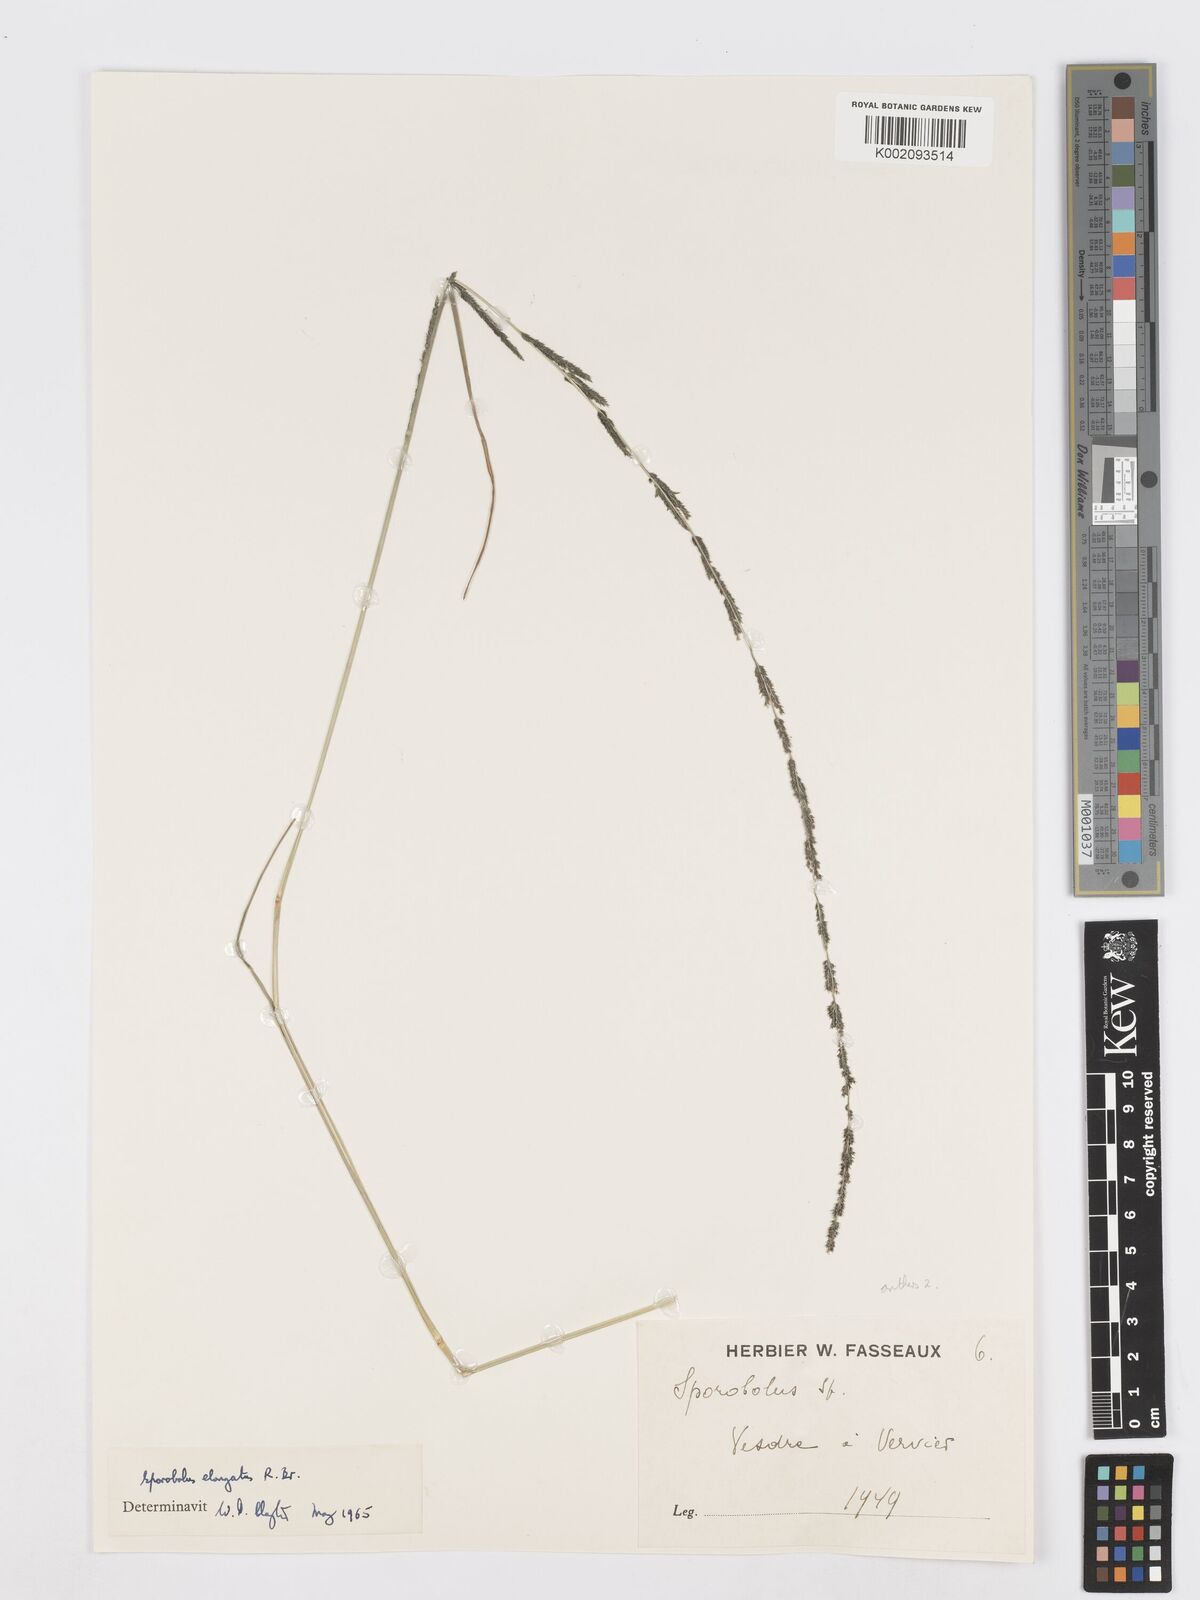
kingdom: Plantae
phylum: Tracheophyta
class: Liliopsida
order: Poales
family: Poaceae
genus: Sporobolus
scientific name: Sporobolus creber
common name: Slender dropseed
